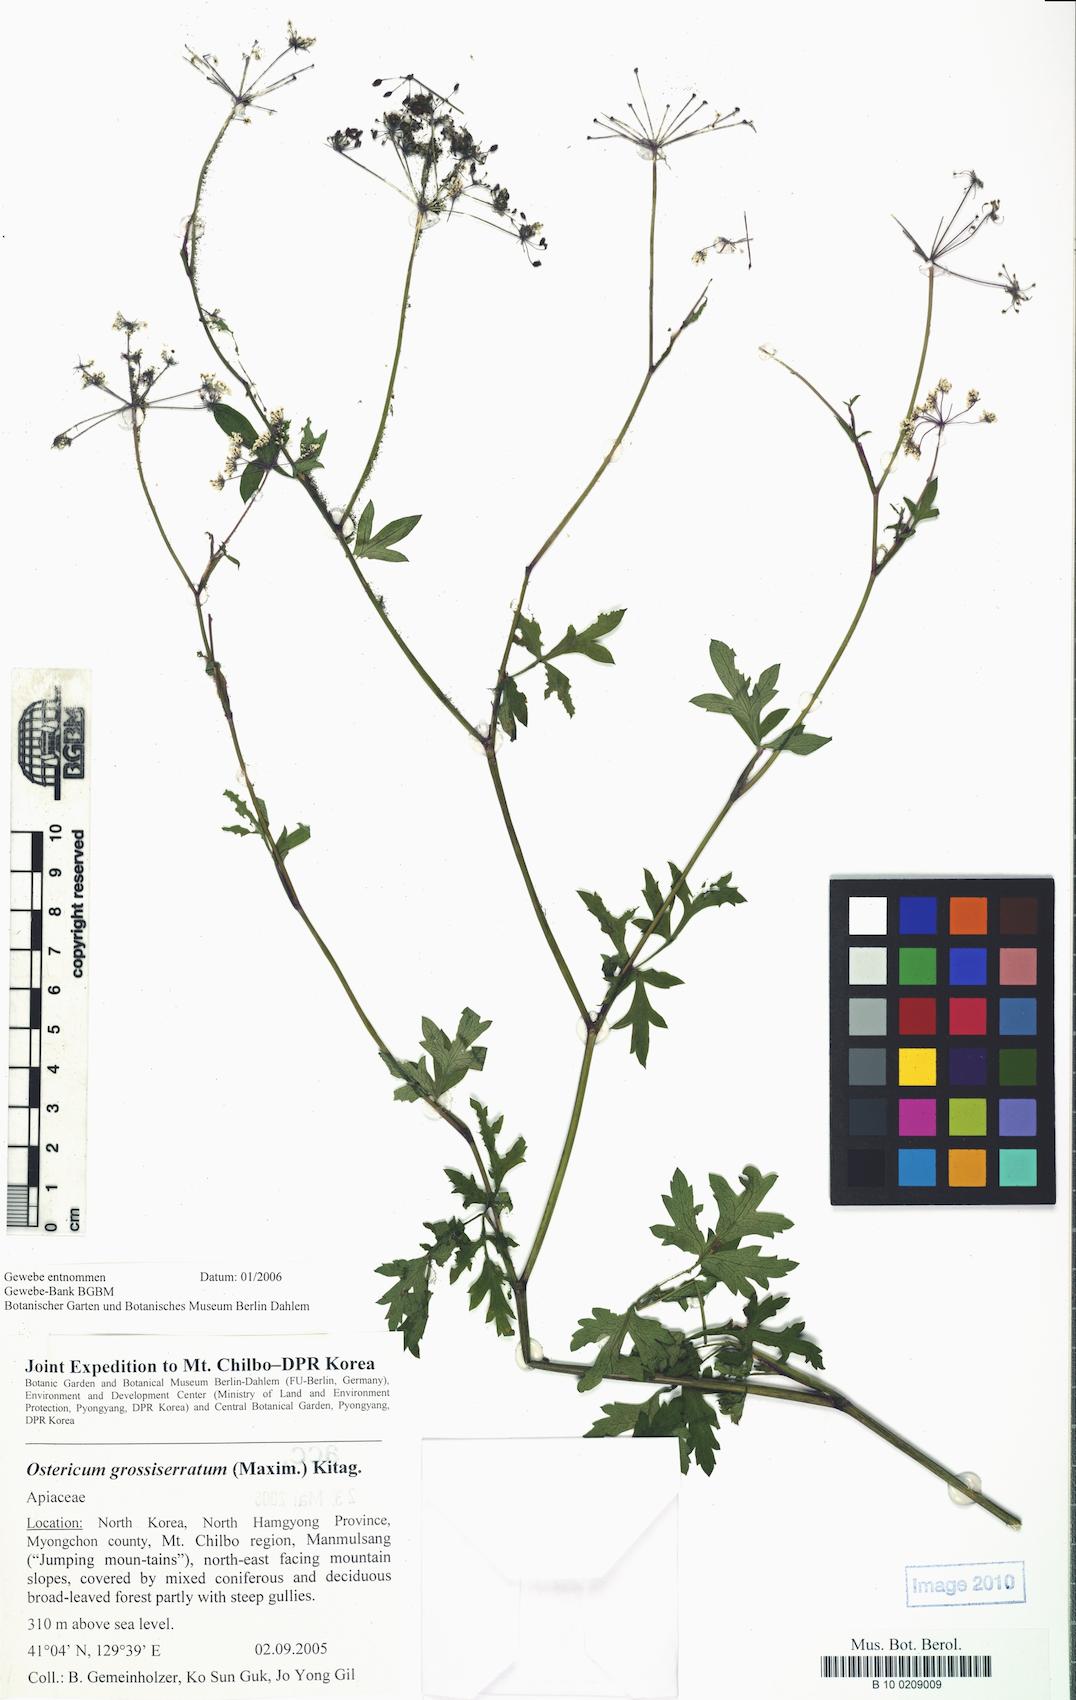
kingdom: Plantae
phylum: Tracheophyta
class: Magnoliopsida
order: Apiales
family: Apiaceae
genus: Ostericum
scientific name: Ostericum grossiserratum
